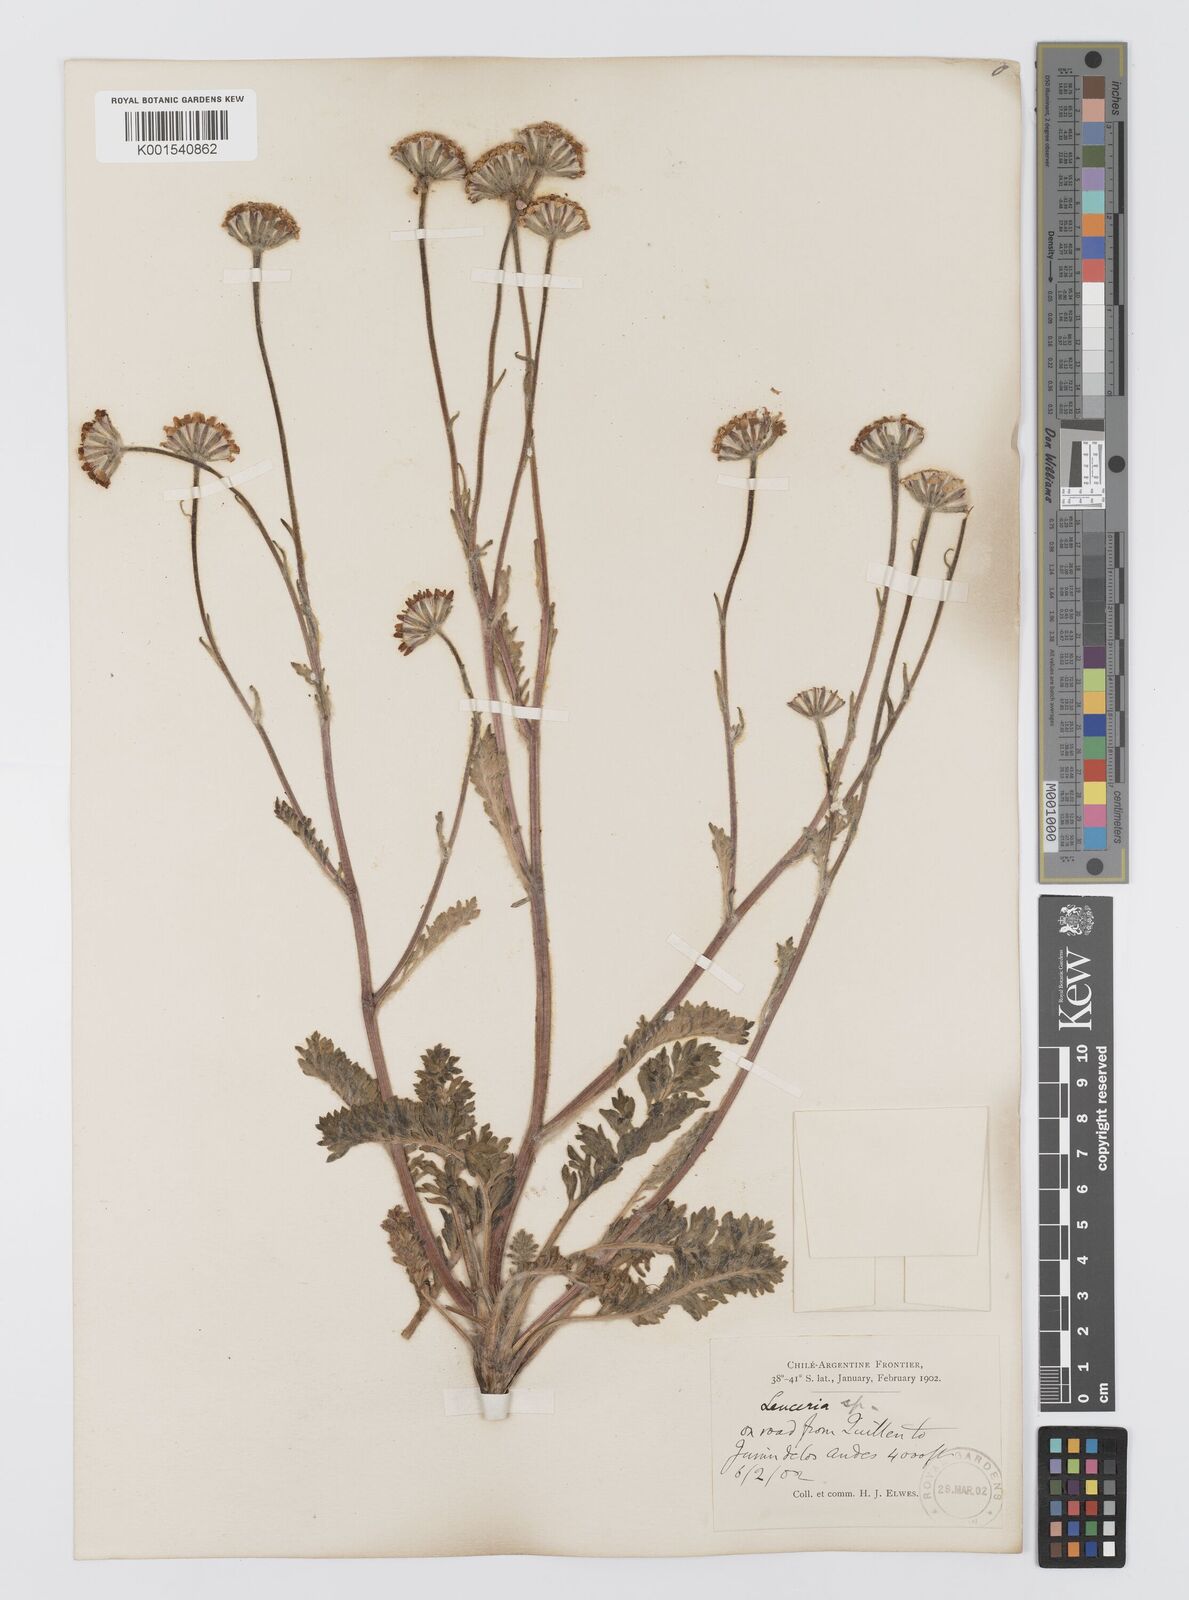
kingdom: Plantae
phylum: Tracheophyta
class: Magnoliopsida
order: Asterales
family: Asteraceae
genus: Leucheria
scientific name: Leucheria millefolium
